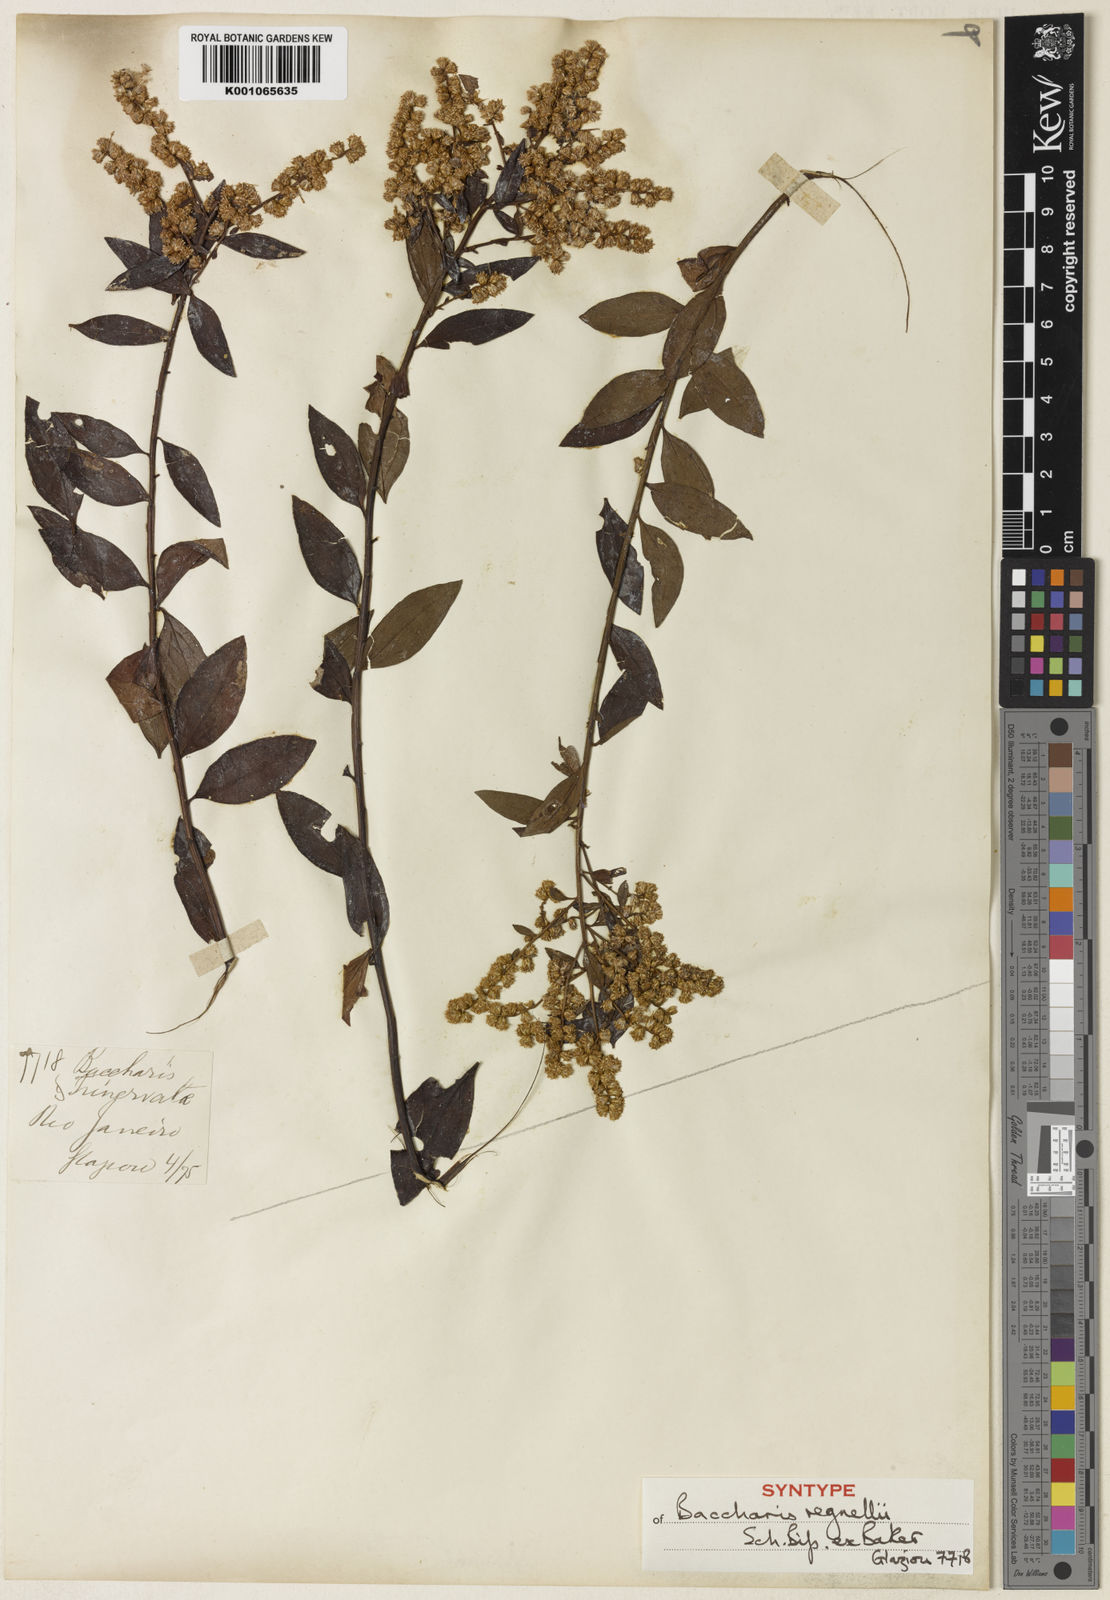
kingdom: Plantae
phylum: Tracheophyta
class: Magnoliopsida
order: Asterales
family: Asteraceae
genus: Baccharis
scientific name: Baccharis
